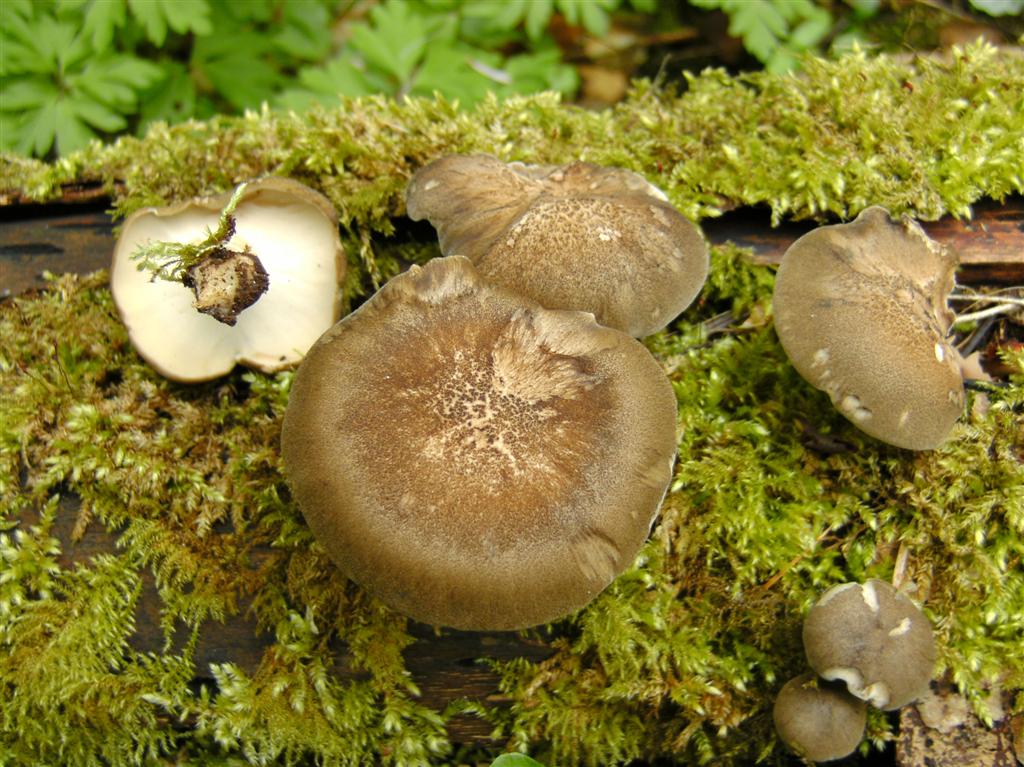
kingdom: Fungi
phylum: Basidiomycota
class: Agaricomycetes
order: Polyporales
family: Polyporaceae
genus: Lentinus
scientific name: Lentinus substrictus
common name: forårs-stilkporesvamp
